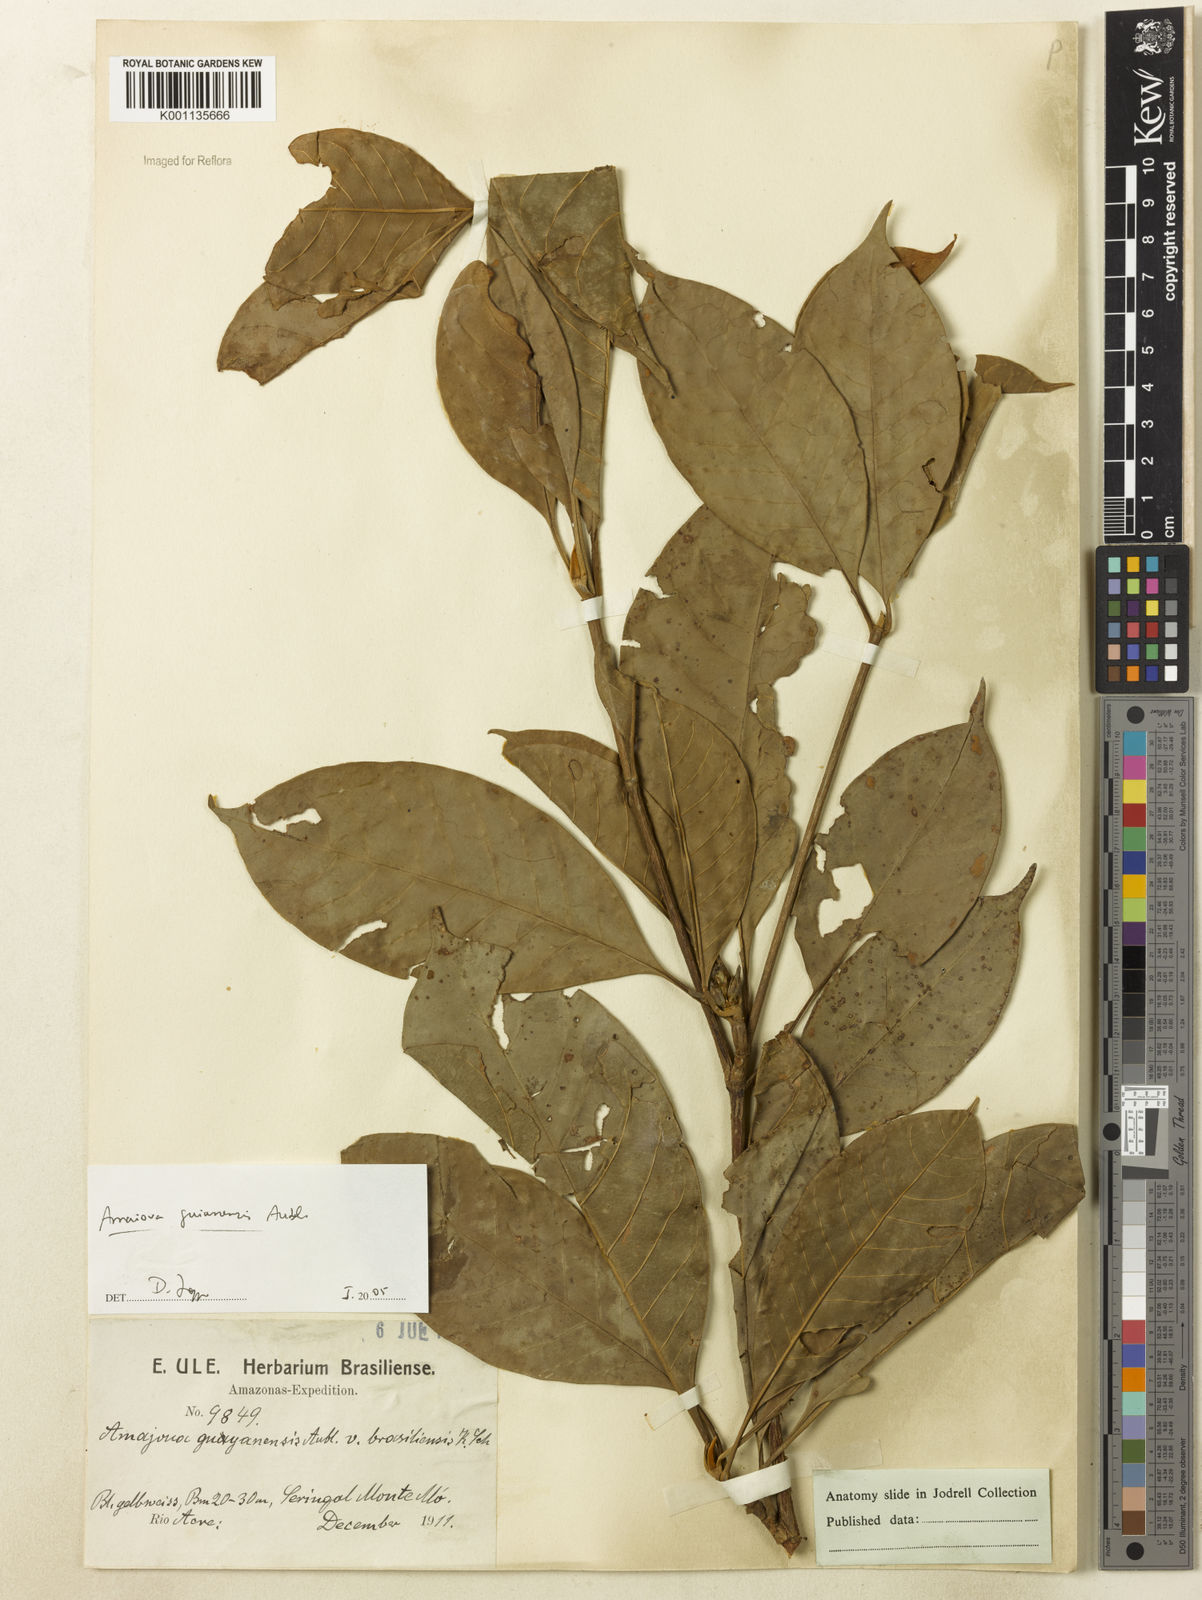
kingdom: Plantae
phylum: Tracheophyta
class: Magnoliopsida
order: Gentianales
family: Rubiaceae
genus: Amaioua
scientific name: Amaioua guianensis
